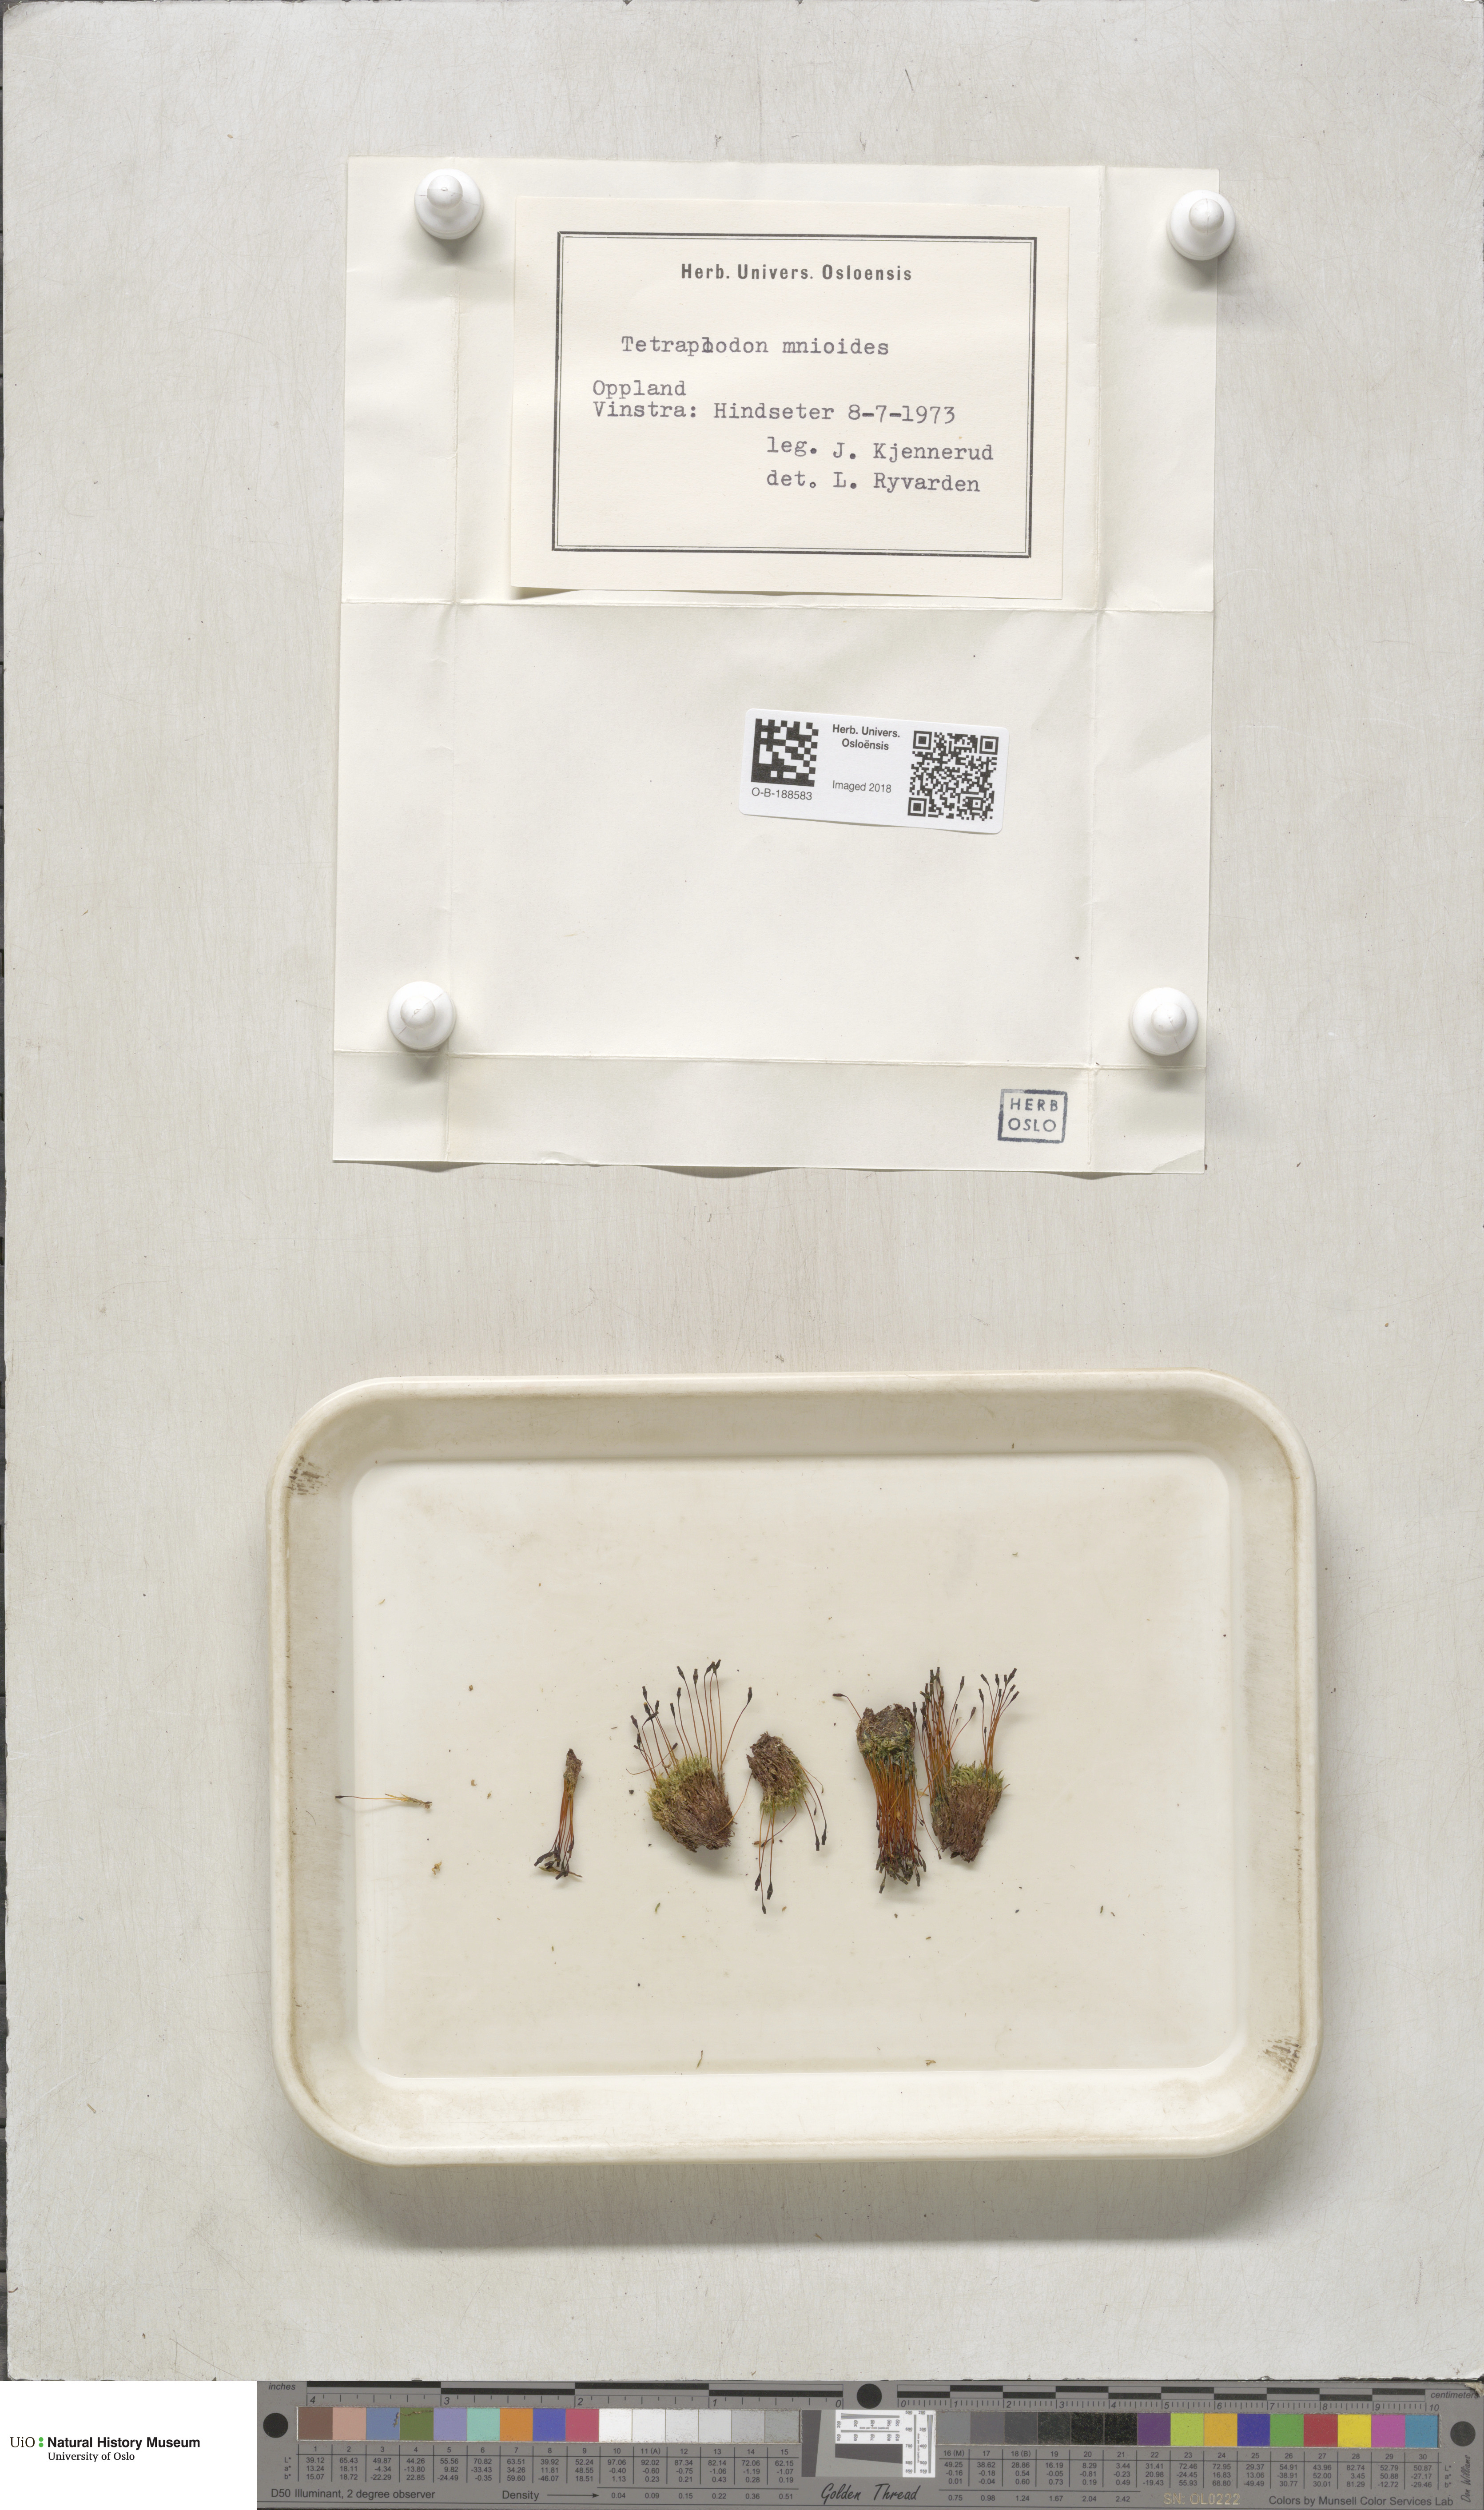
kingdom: Plantae
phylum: Bryophyta
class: Bryopsida
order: Splachnales
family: Splachnaceae
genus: Tetraplodon
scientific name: Tetraplodon mnioides
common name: Entire-leaved nitrogen moss
